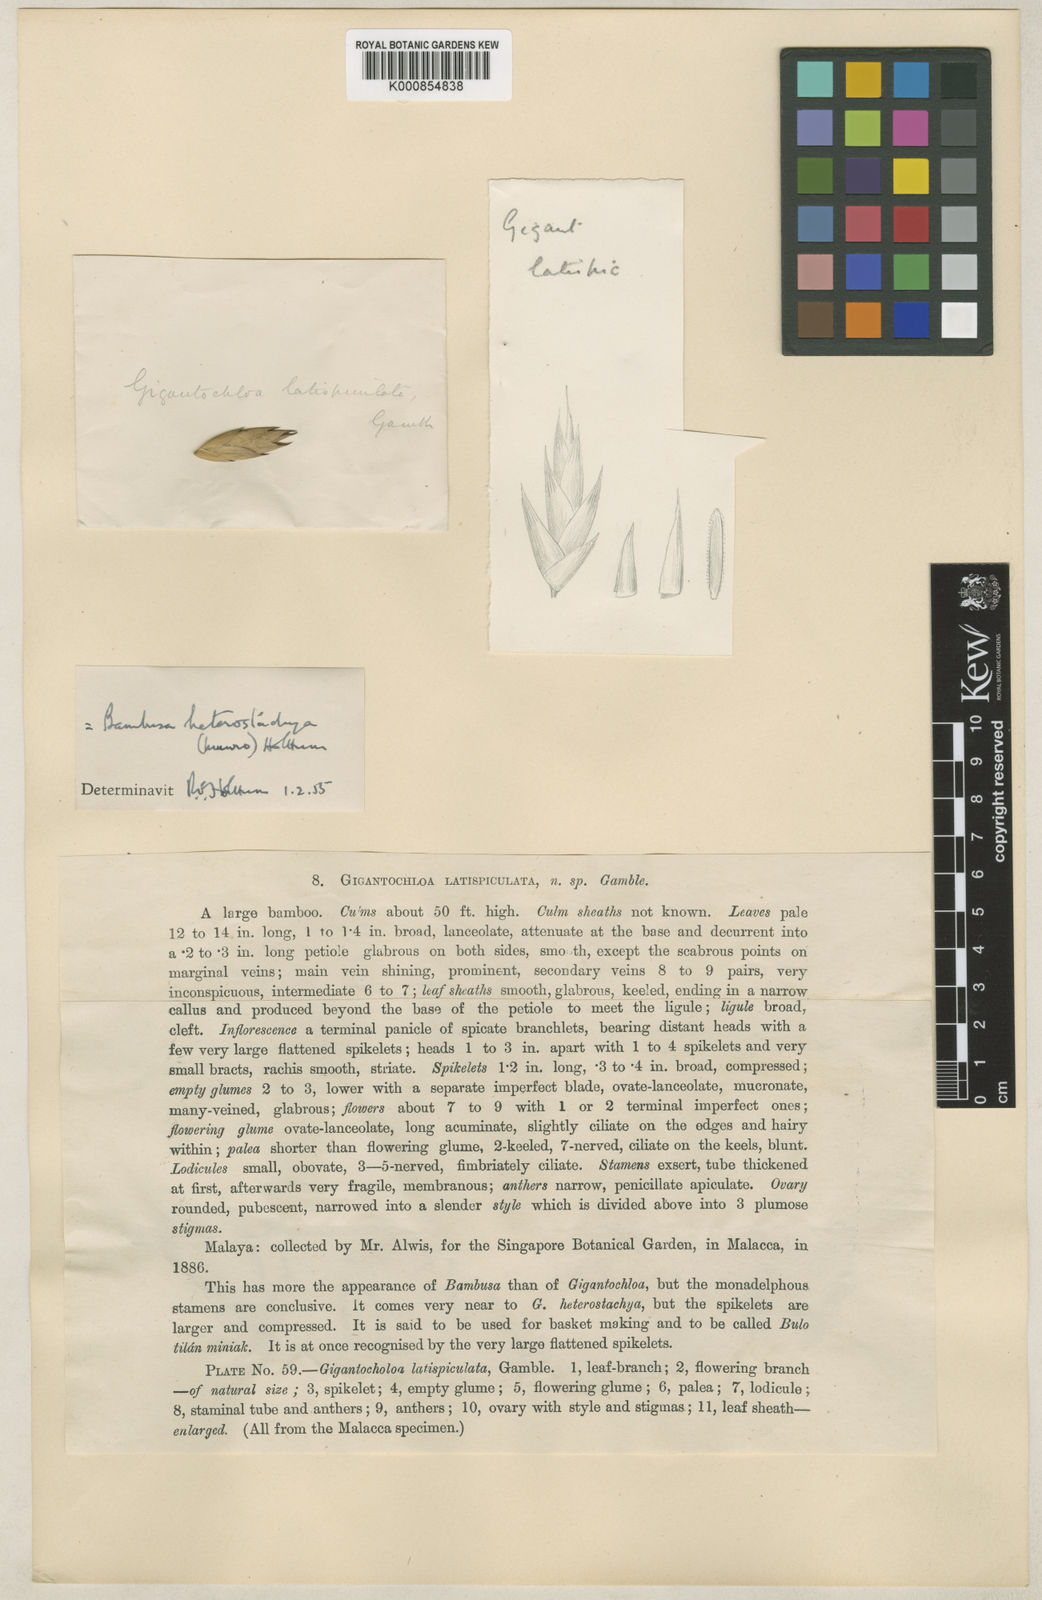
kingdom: Plantae
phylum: Tracheophyta
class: Liliopsida
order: Poales
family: Poaceae
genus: Bambusa
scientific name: Bambusa heterostachya
